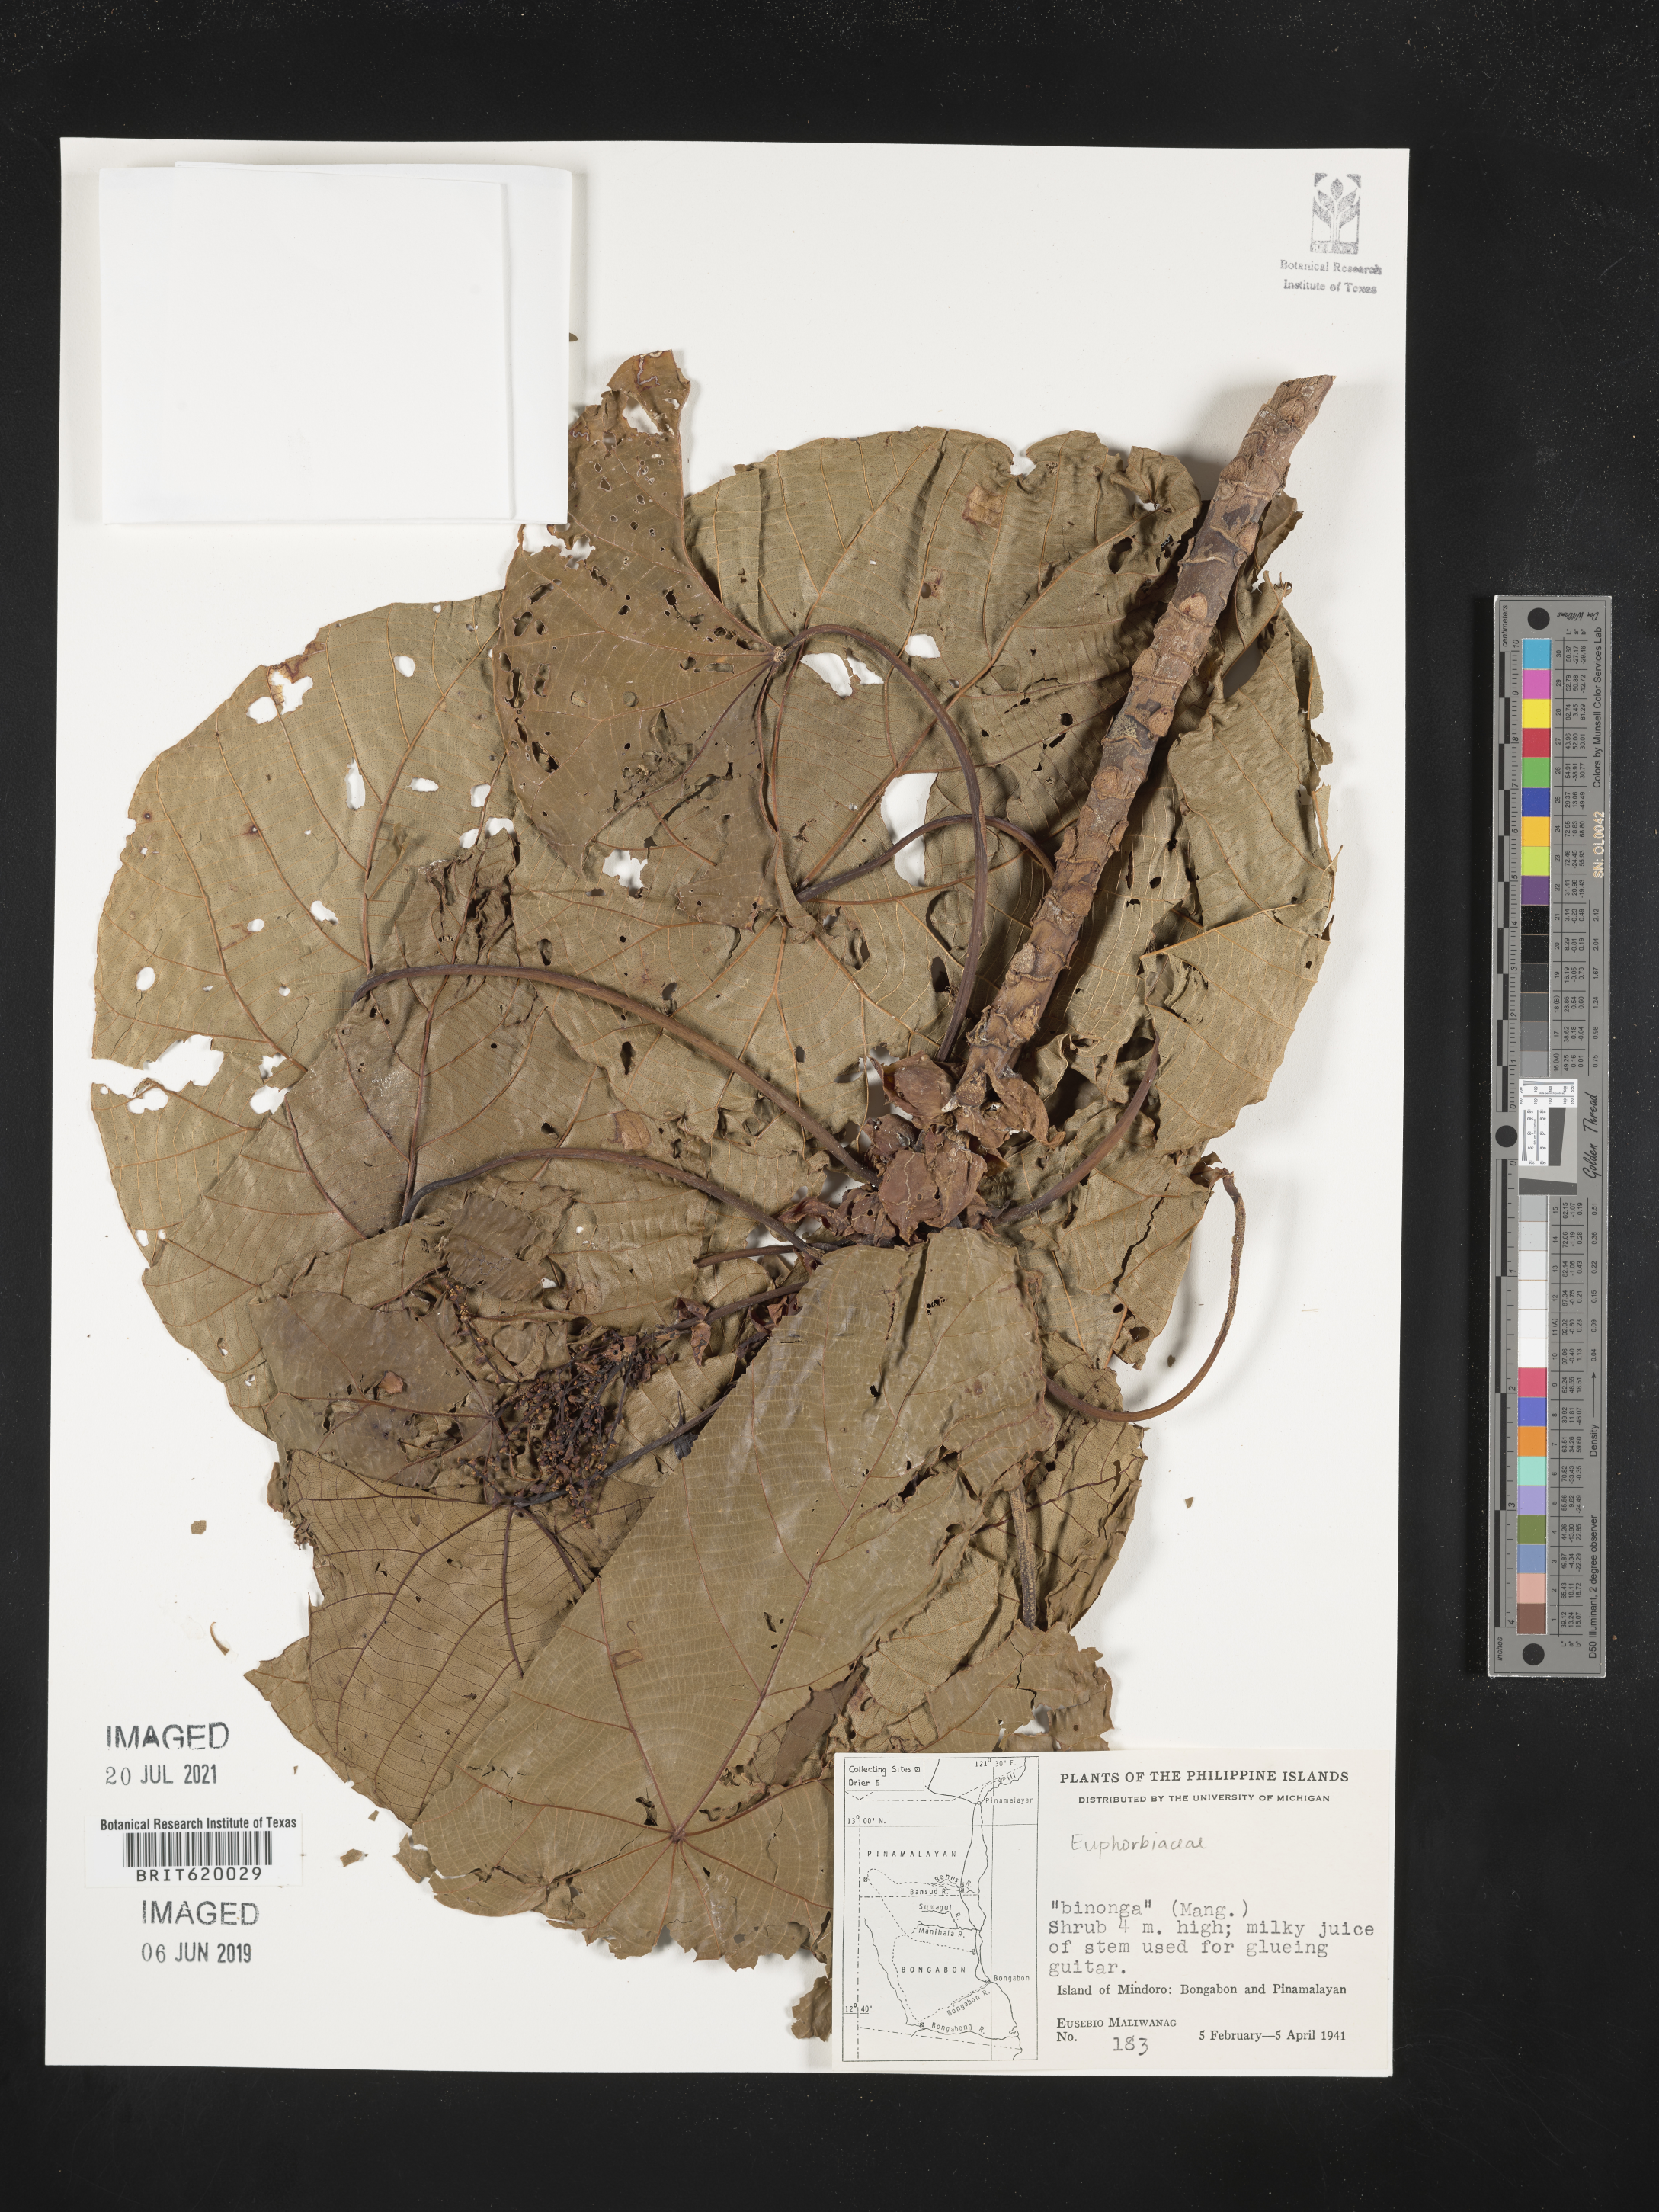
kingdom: Plantae
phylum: Tracheophyta
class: Magnoliopsida
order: Malpighiales
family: Euphorbiaceae
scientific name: Euphorbiaceae
